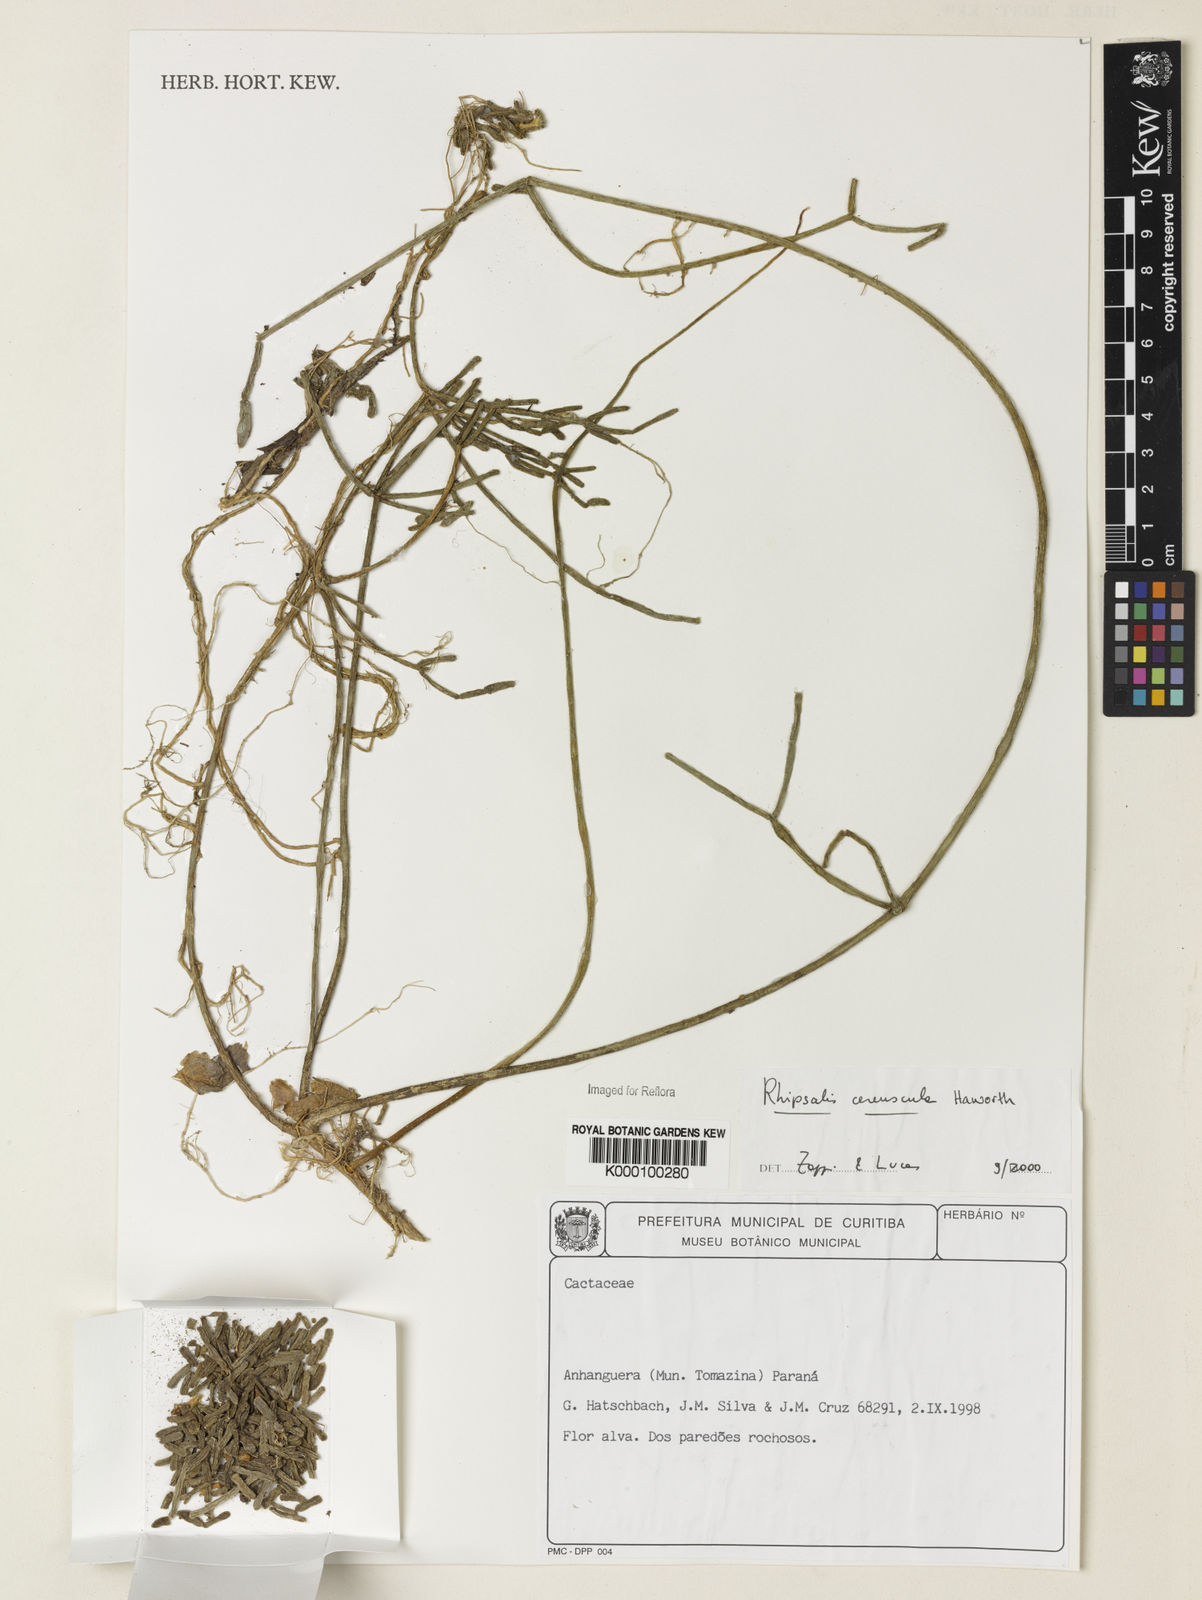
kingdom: Plantae
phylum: Tracheophyta
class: Magnoliopsida
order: Caryophyllales
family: Cactaceae
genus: Rhipsalis
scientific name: Rhipsalis cereuscula
